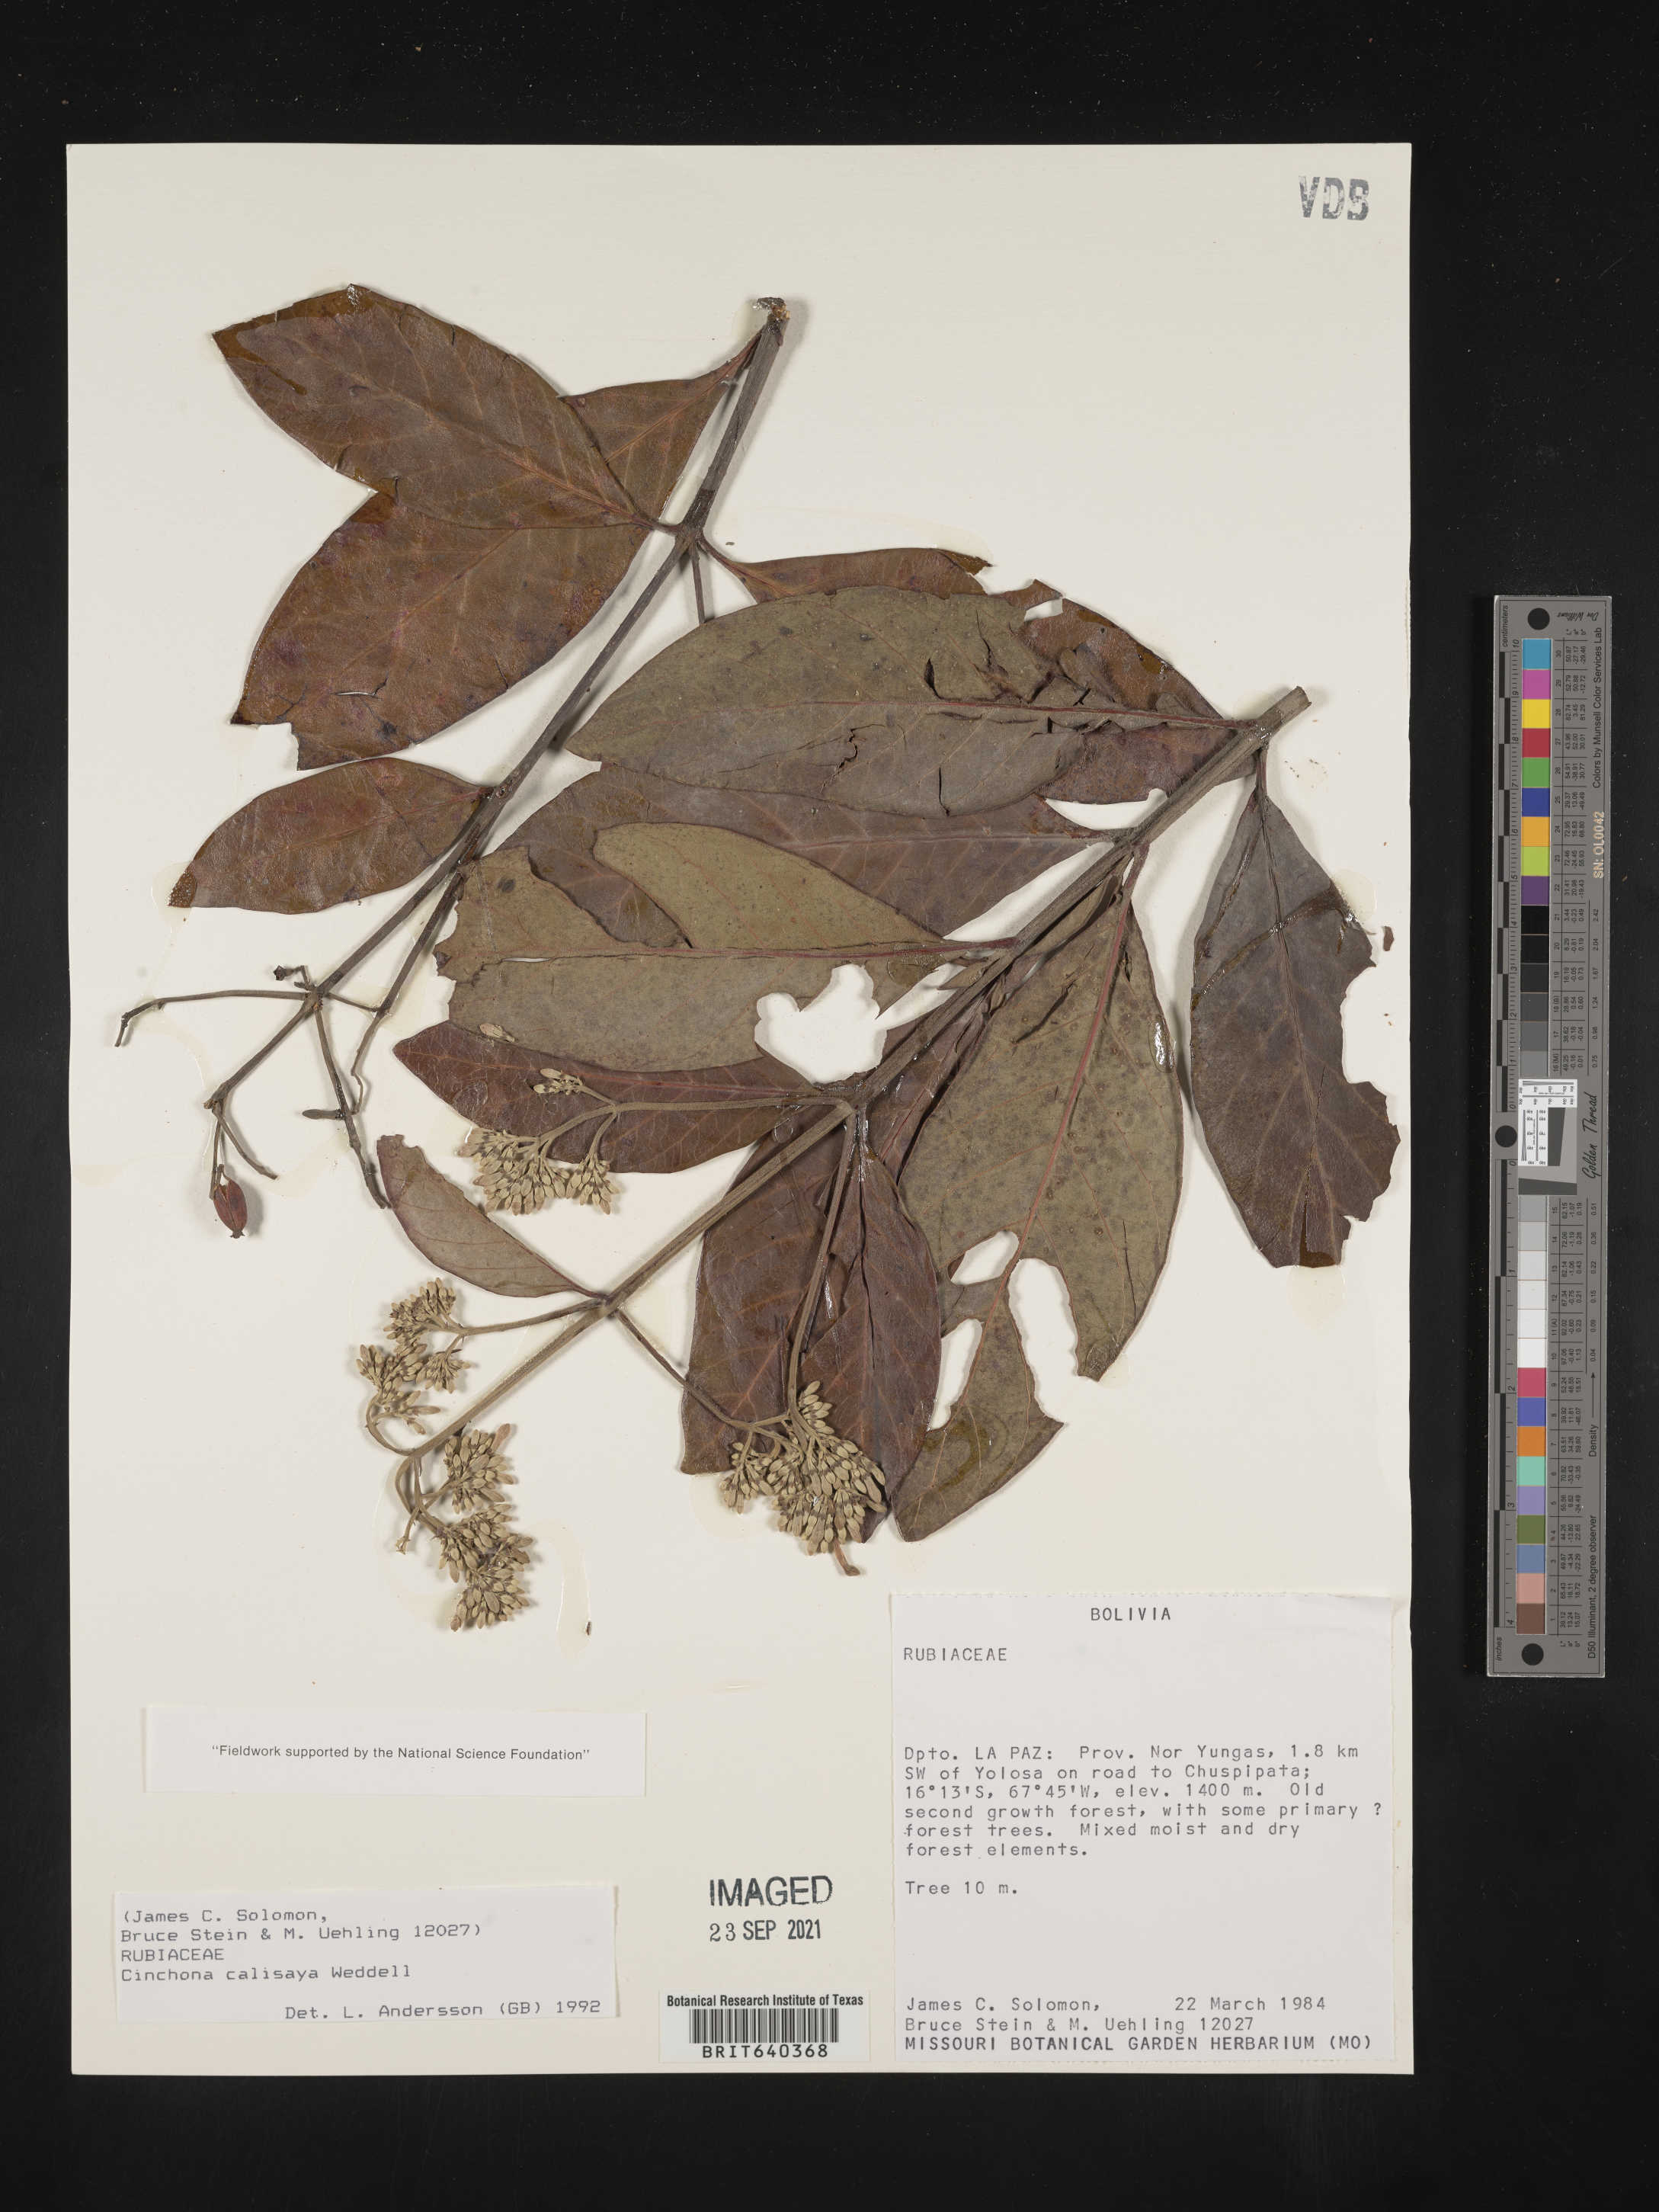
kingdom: Plantae
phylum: Tracheophyta
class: Magnoliopsida
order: Gentianales
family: Rubiaceae
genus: Cinchona
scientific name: Cinchona
